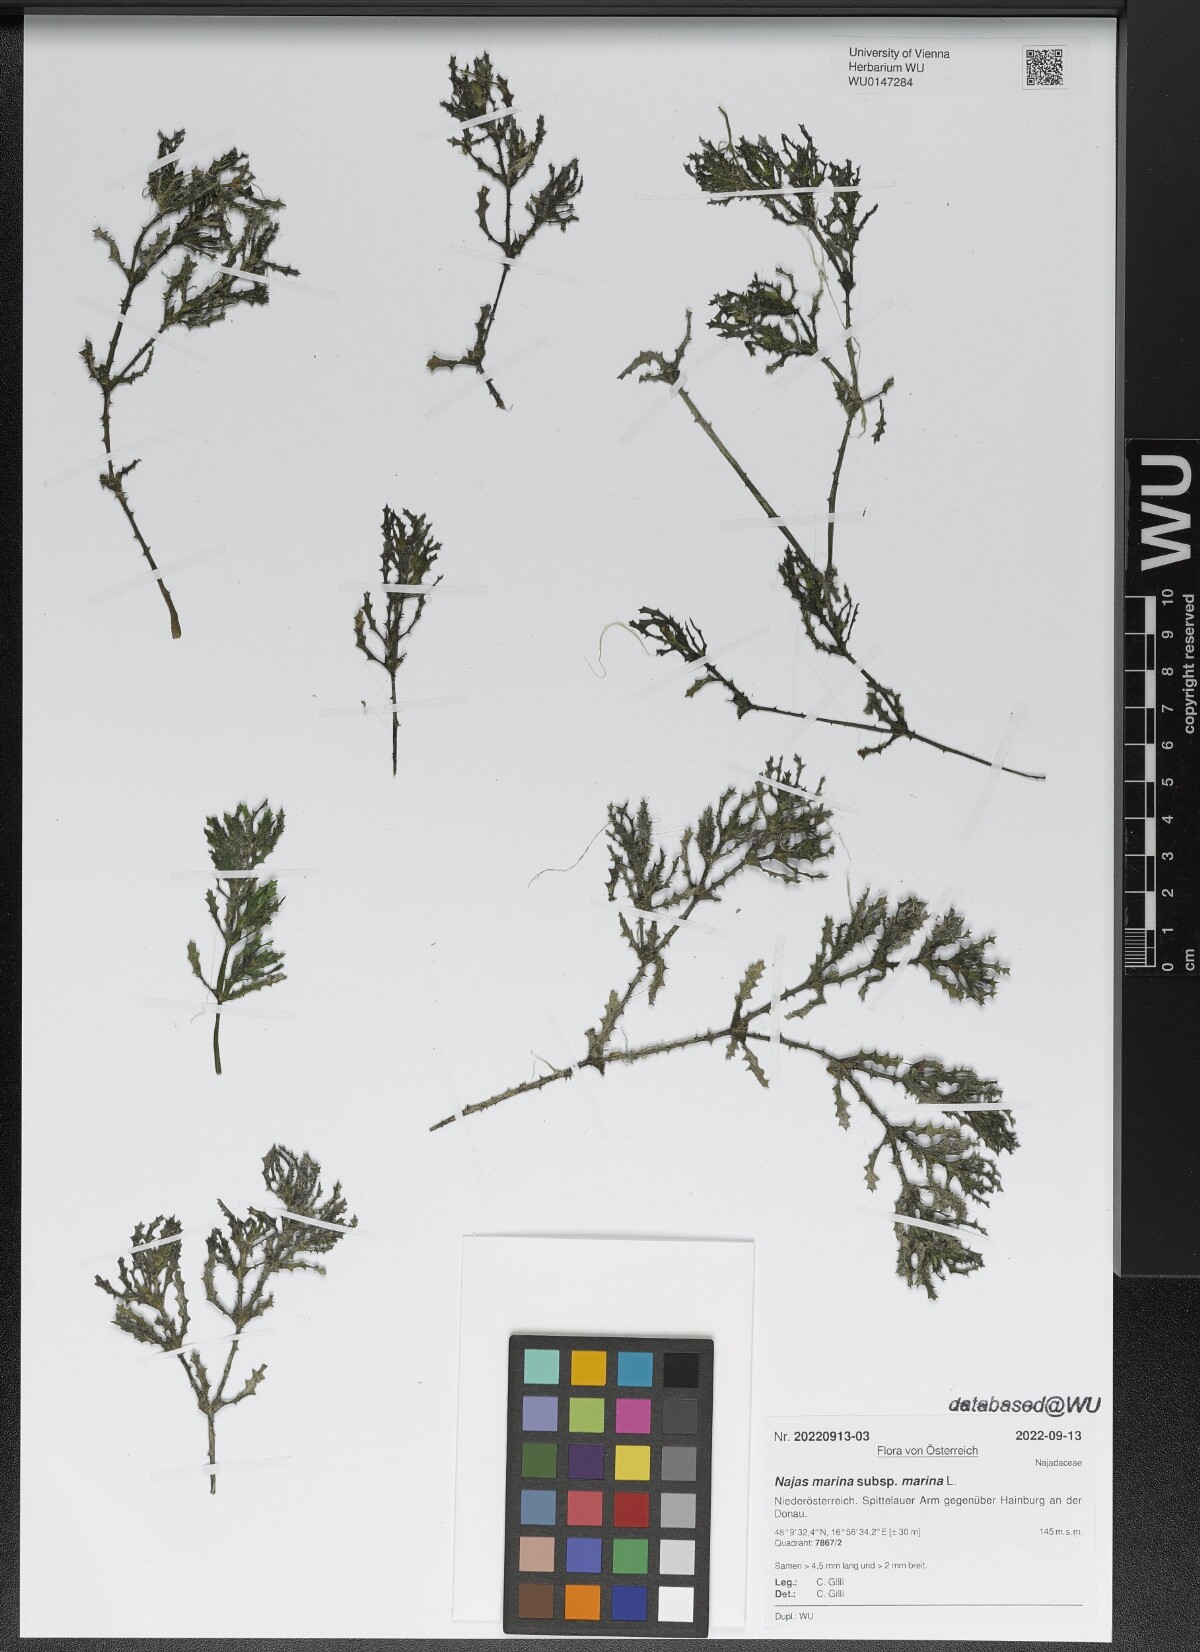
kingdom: Plantae
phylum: Tracheophyta
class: Liliopsida
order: Alismatales
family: Hydrocharitaceae
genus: Najas
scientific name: Najas marina
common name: Holly-leaved naiad
